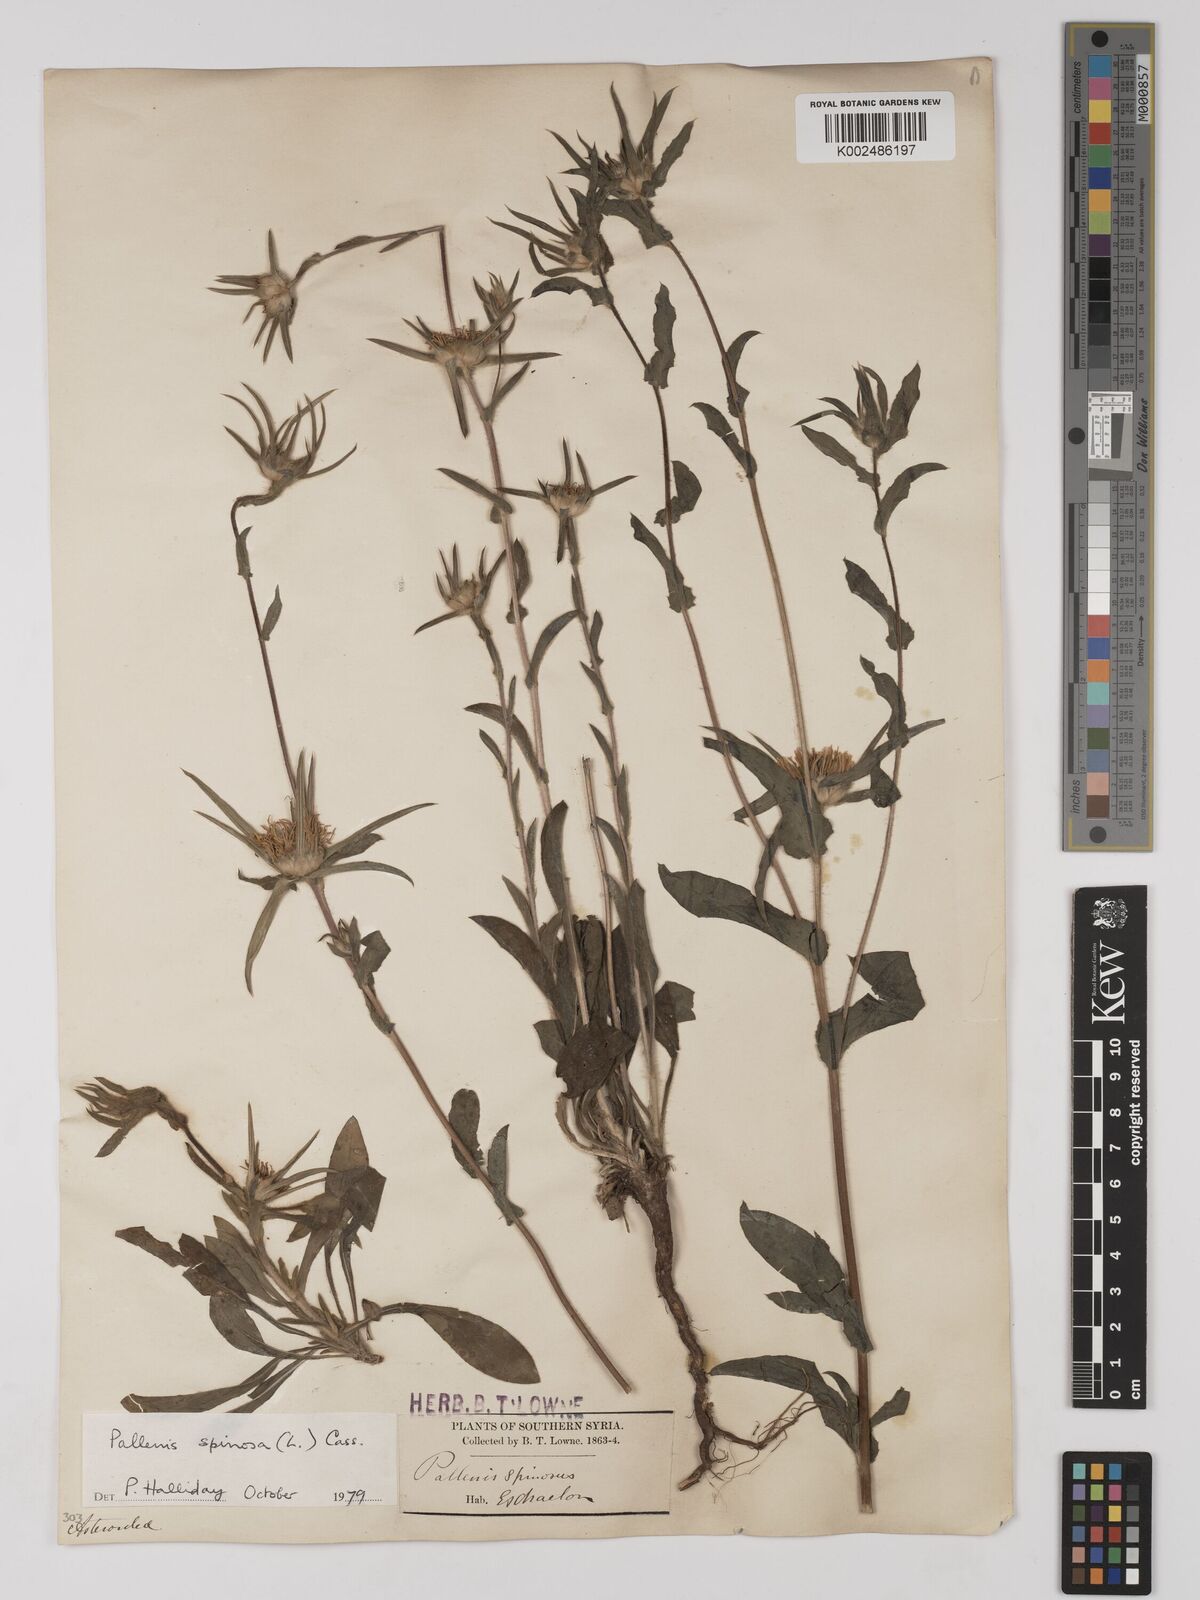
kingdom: Plantae
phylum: Tracheophyta
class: Magnoliopsida
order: Asterales
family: Asteraceae
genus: Pallenis
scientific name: Pallenis spinosa
